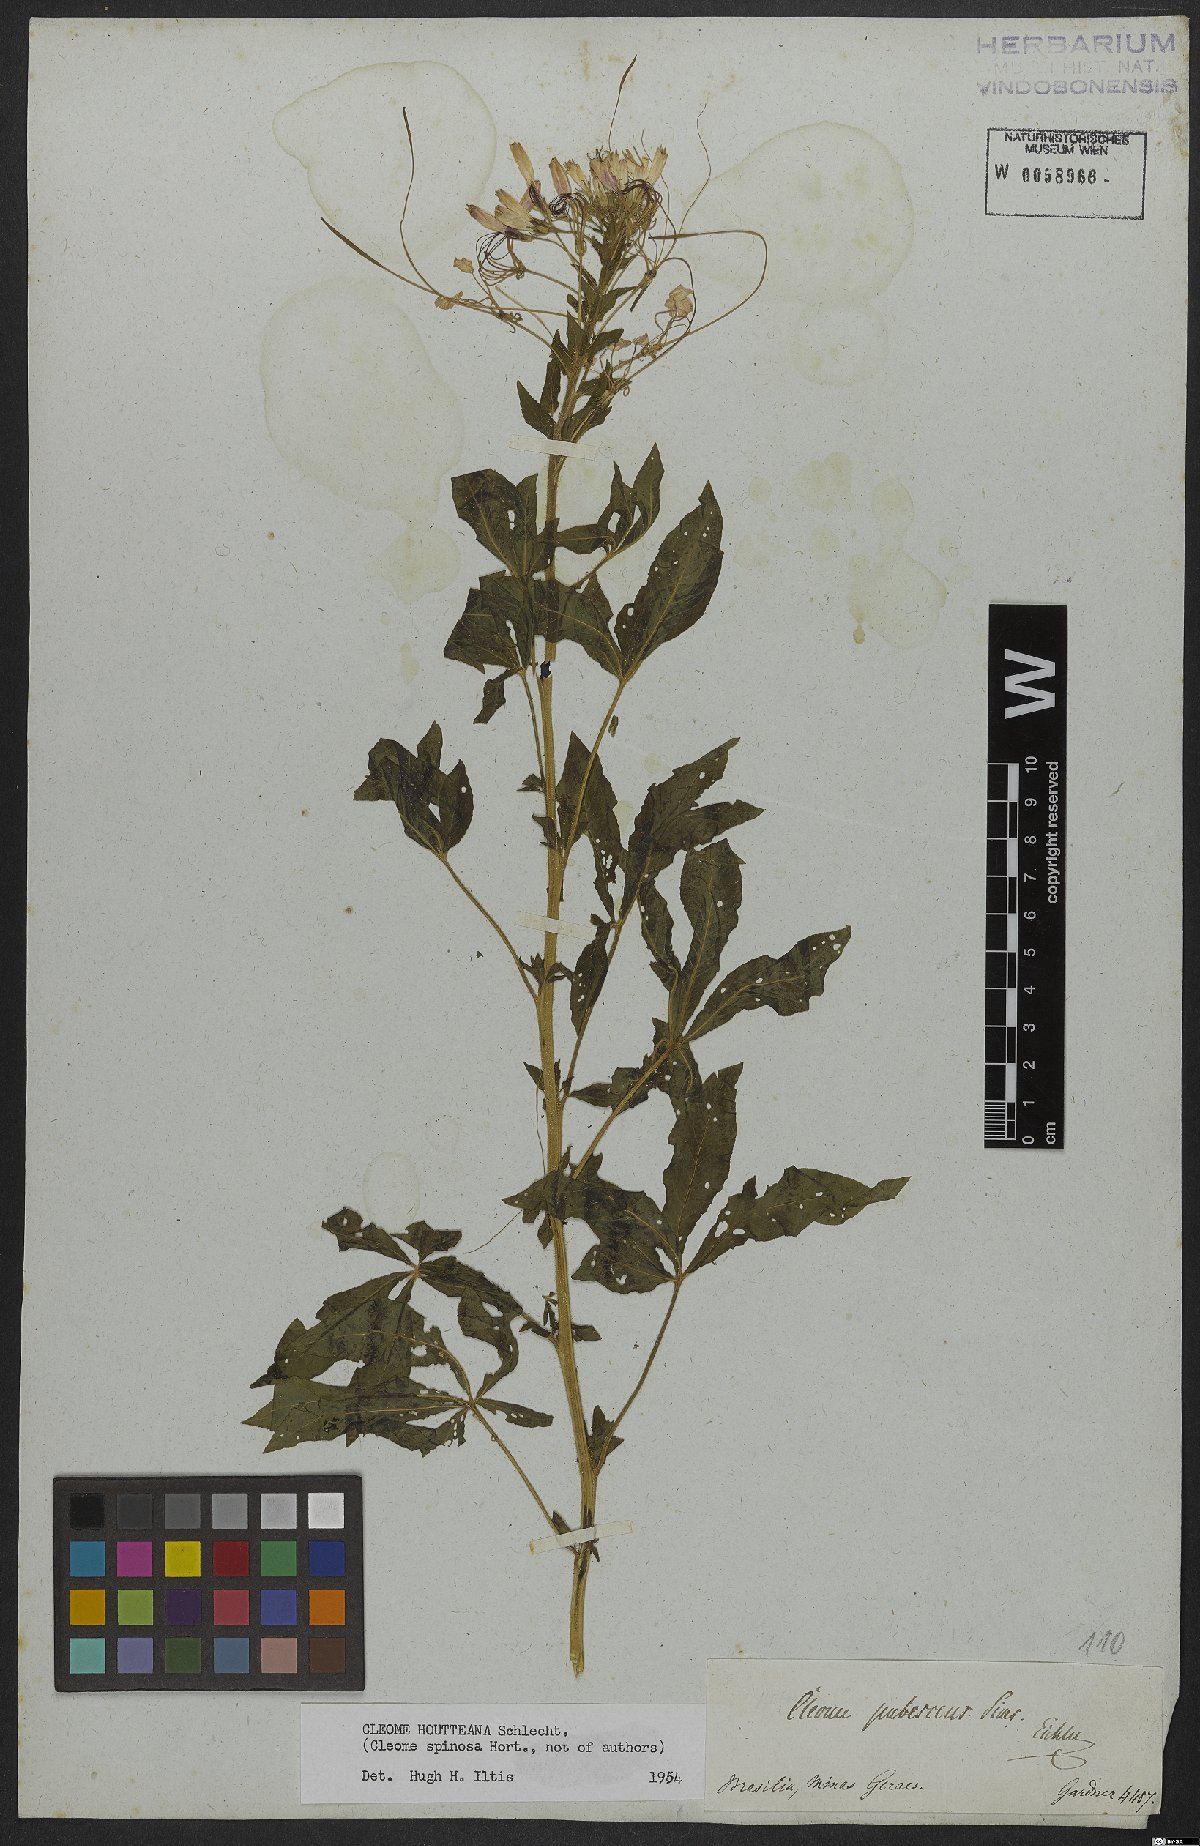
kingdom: Plantae
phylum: Tracheophyta
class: Magnoliopsida
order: Brassicales
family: Cleomaceae
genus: Tarenaya
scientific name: Tarenaya houtteana
